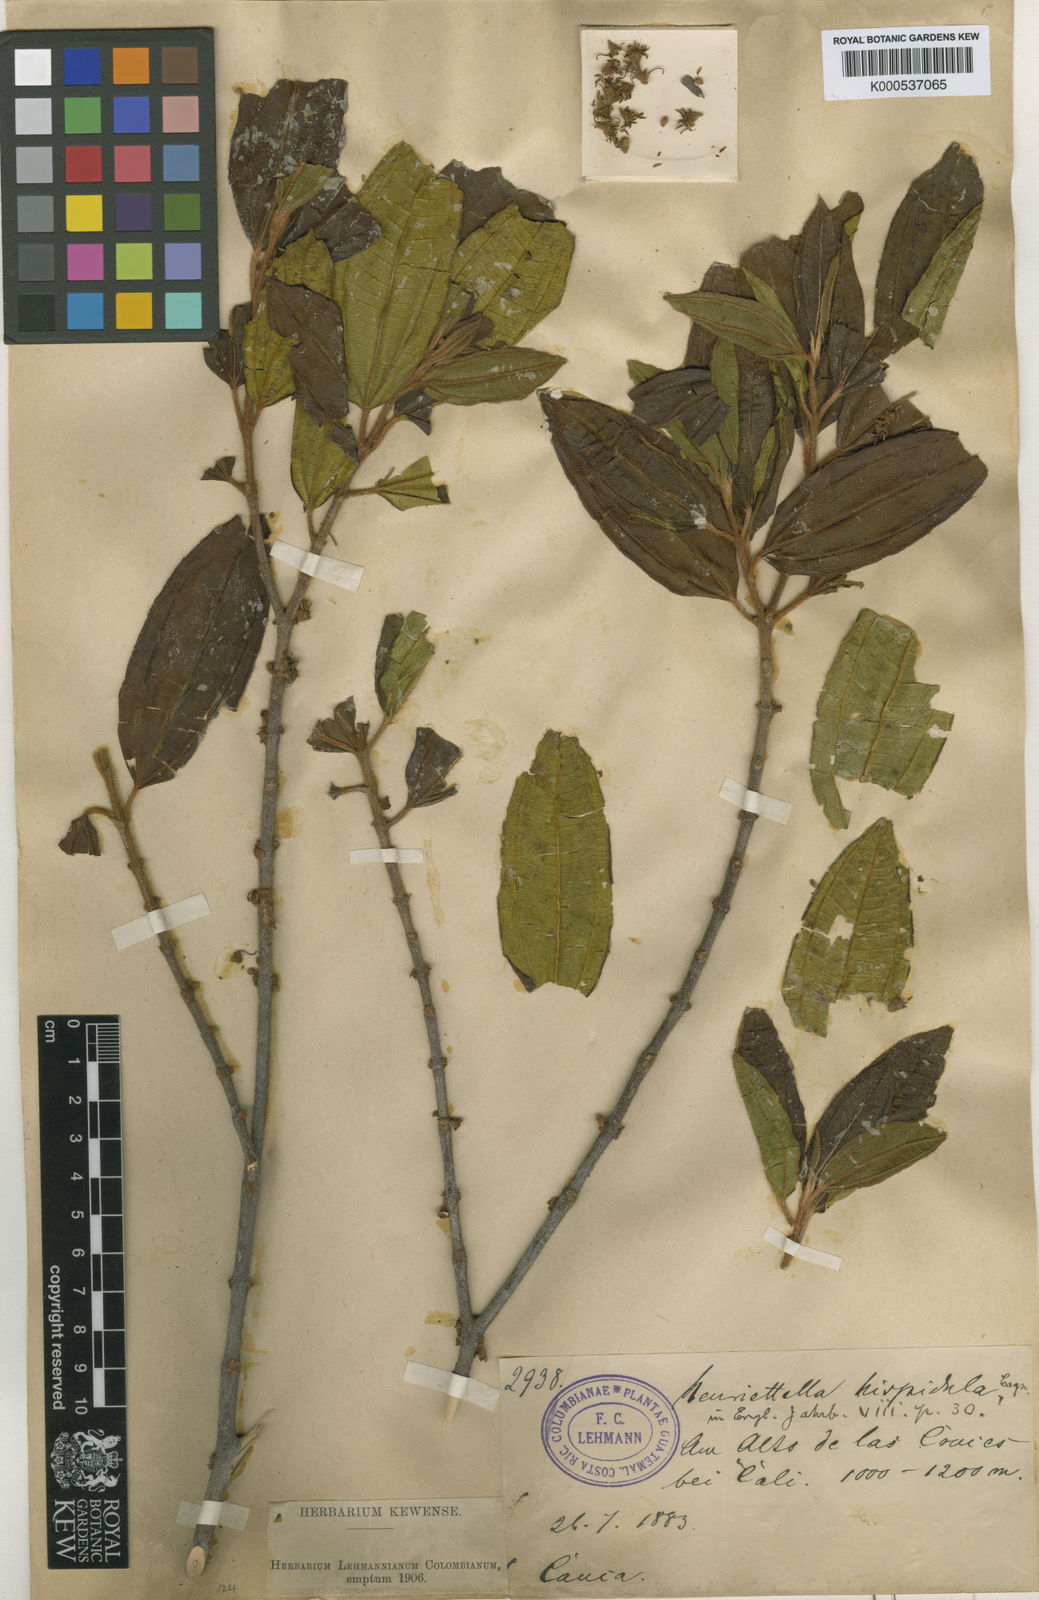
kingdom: Plantae
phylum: Tracheophyta
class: Magnoliopsida
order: Myrtales
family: Melastomataceae
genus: Henriettea
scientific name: Henriettea seemannii
